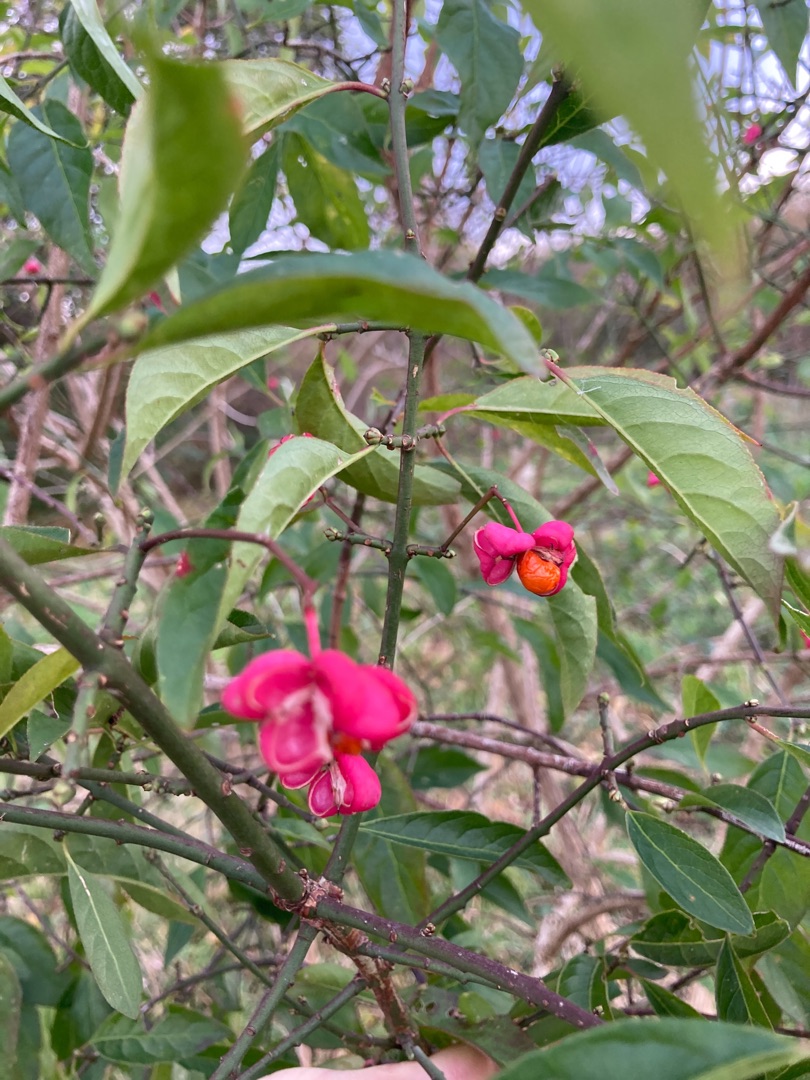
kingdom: Plantae
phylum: Tracheophyta
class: Magnoliopsida
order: Celastrales
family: Celastraceae
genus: Euonymus
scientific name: Euonymus europaeus
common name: Benved
